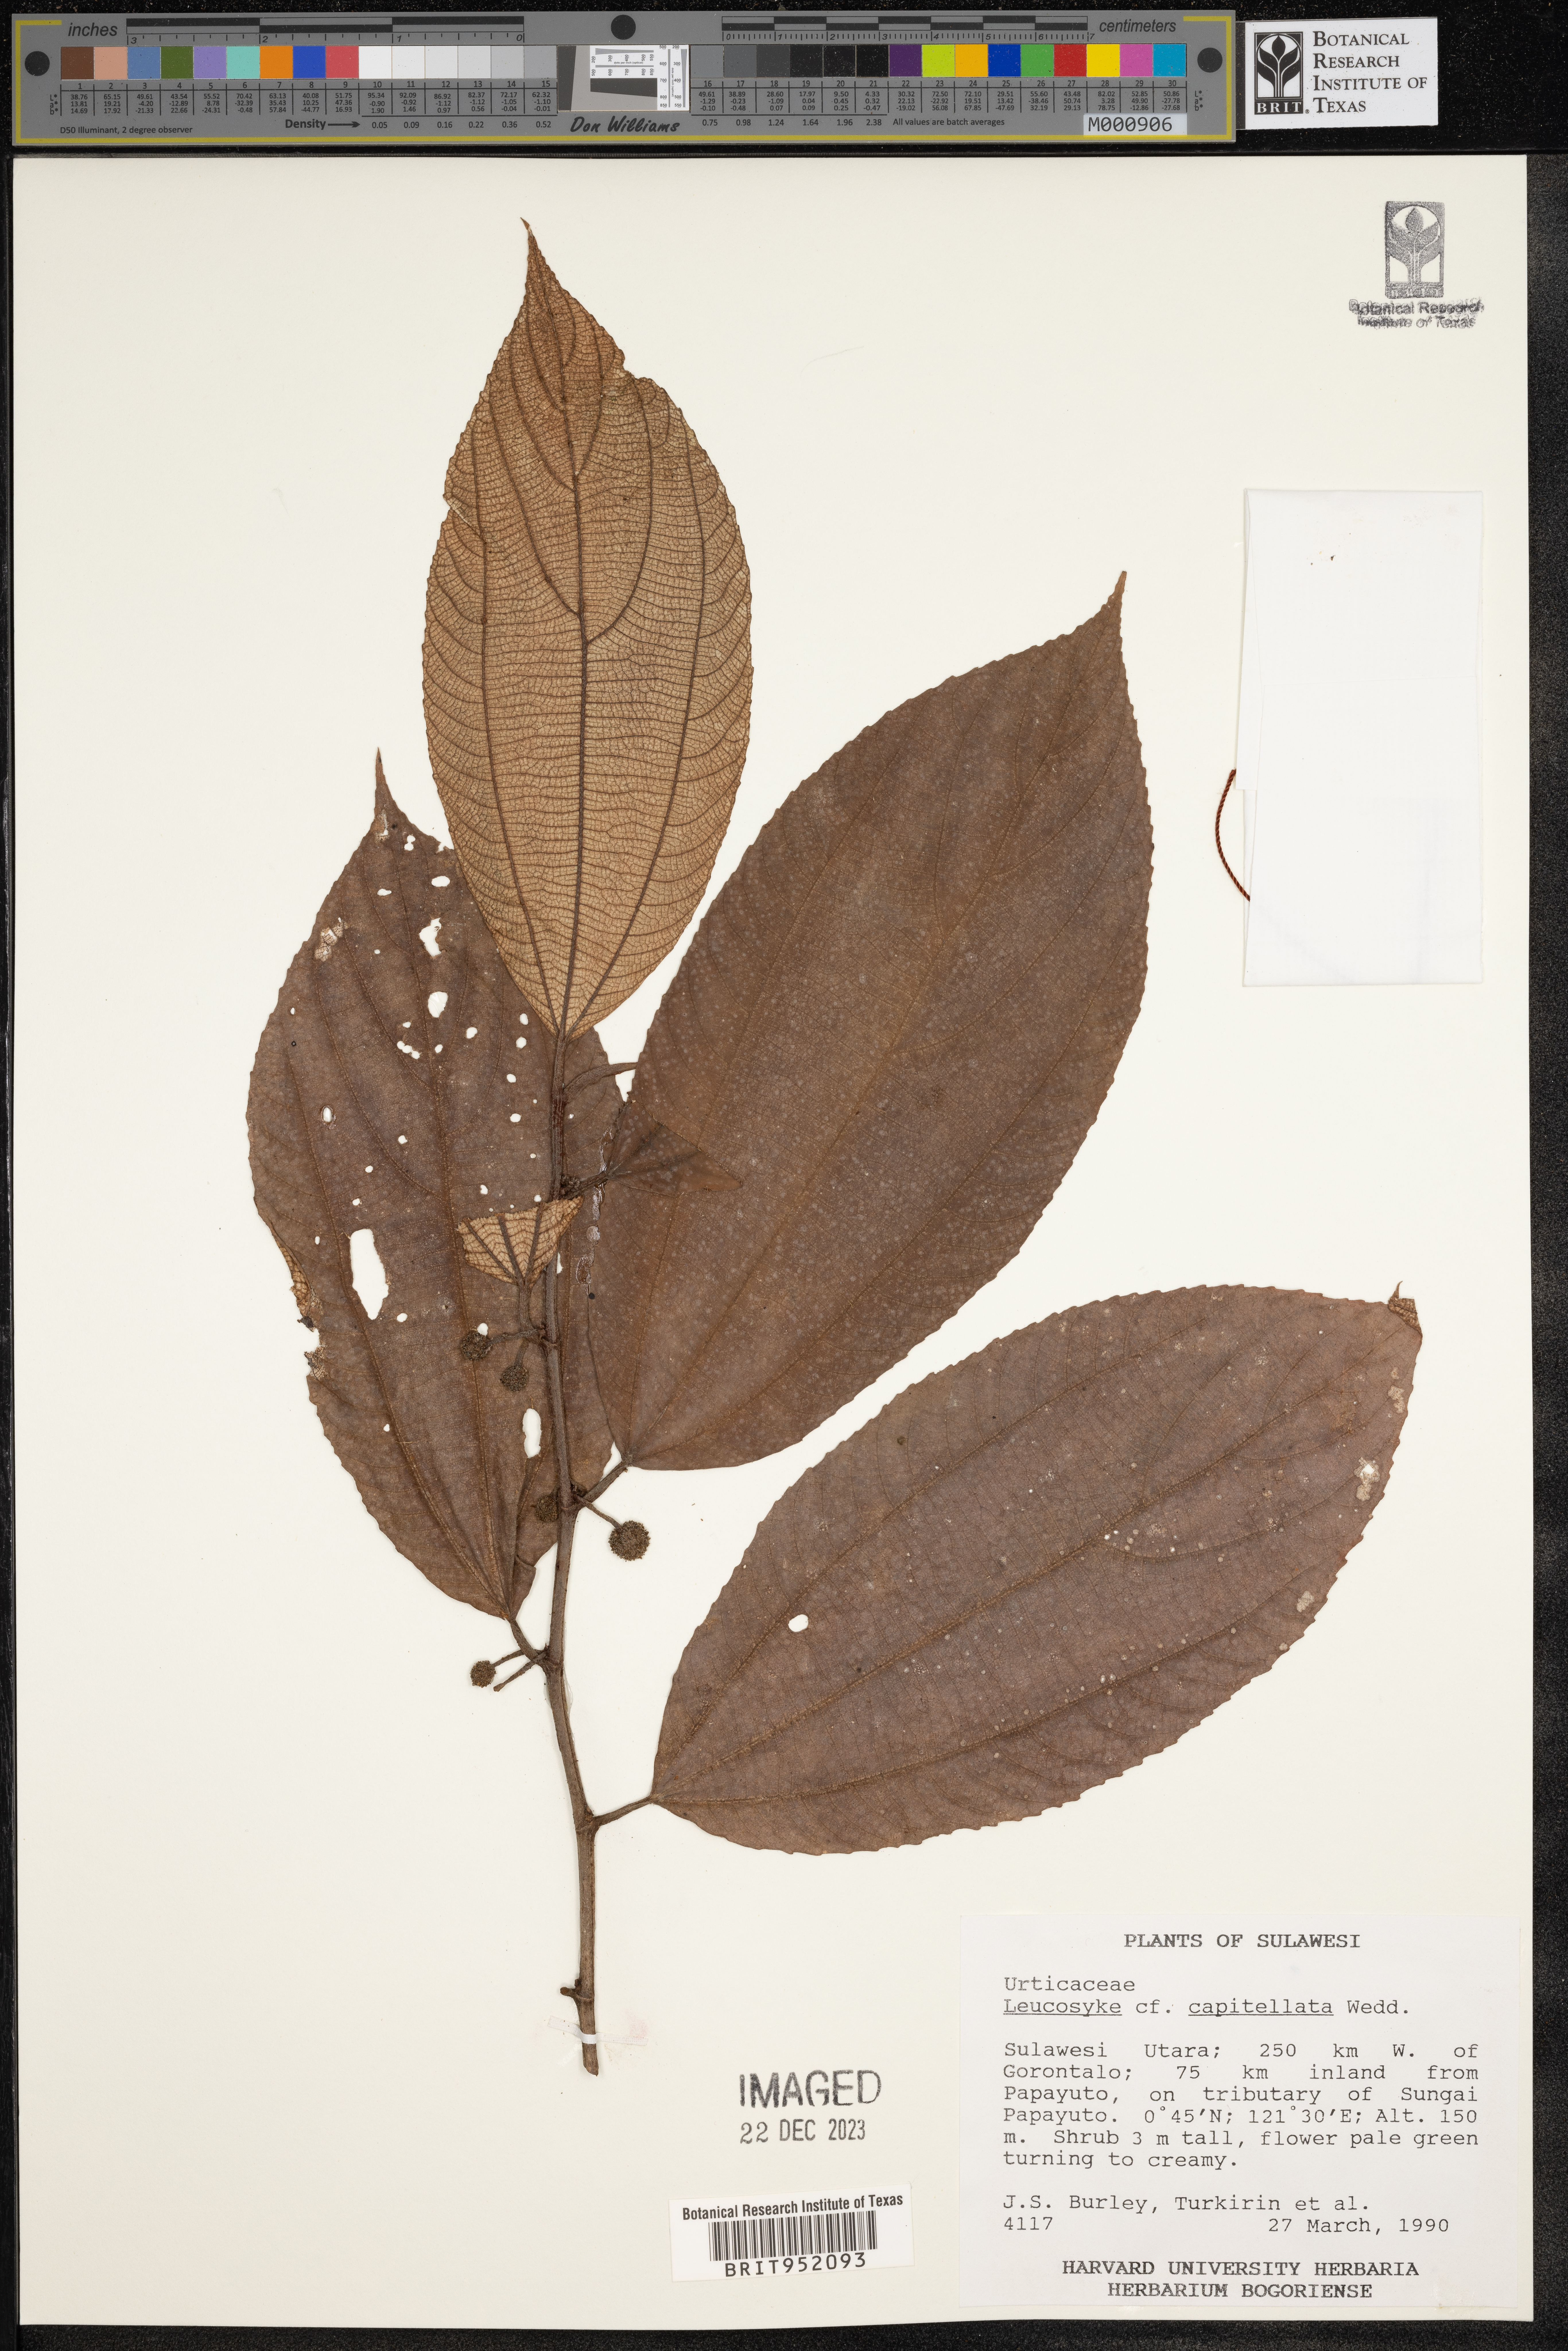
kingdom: Plantae
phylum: Tracheophyta
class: Magnoliopsida
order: Rosales
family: Urticaceae
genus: Leucosyke
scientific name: Leucosyke capitellata
